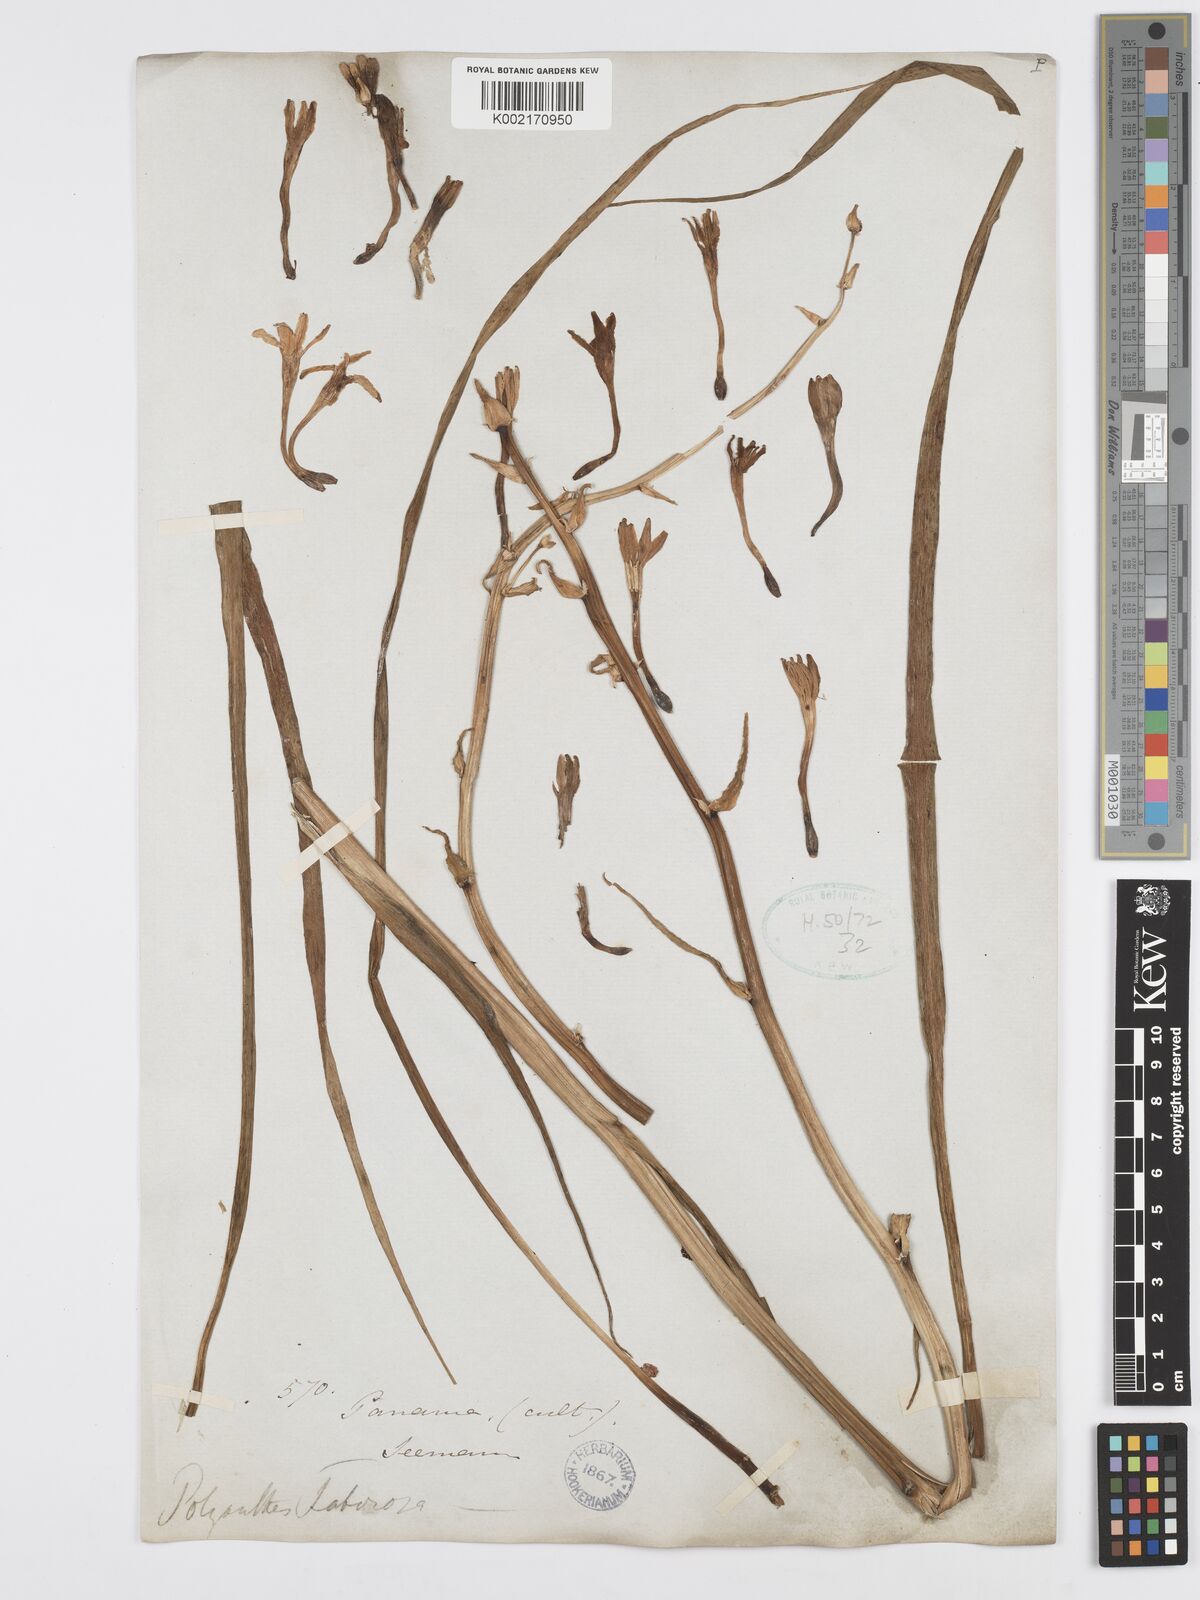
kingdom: Plantae
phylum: Tracheophyta
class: Liliopsida
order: Asparagales
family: Asparagaceae
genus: Agave
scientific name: Agave amica
